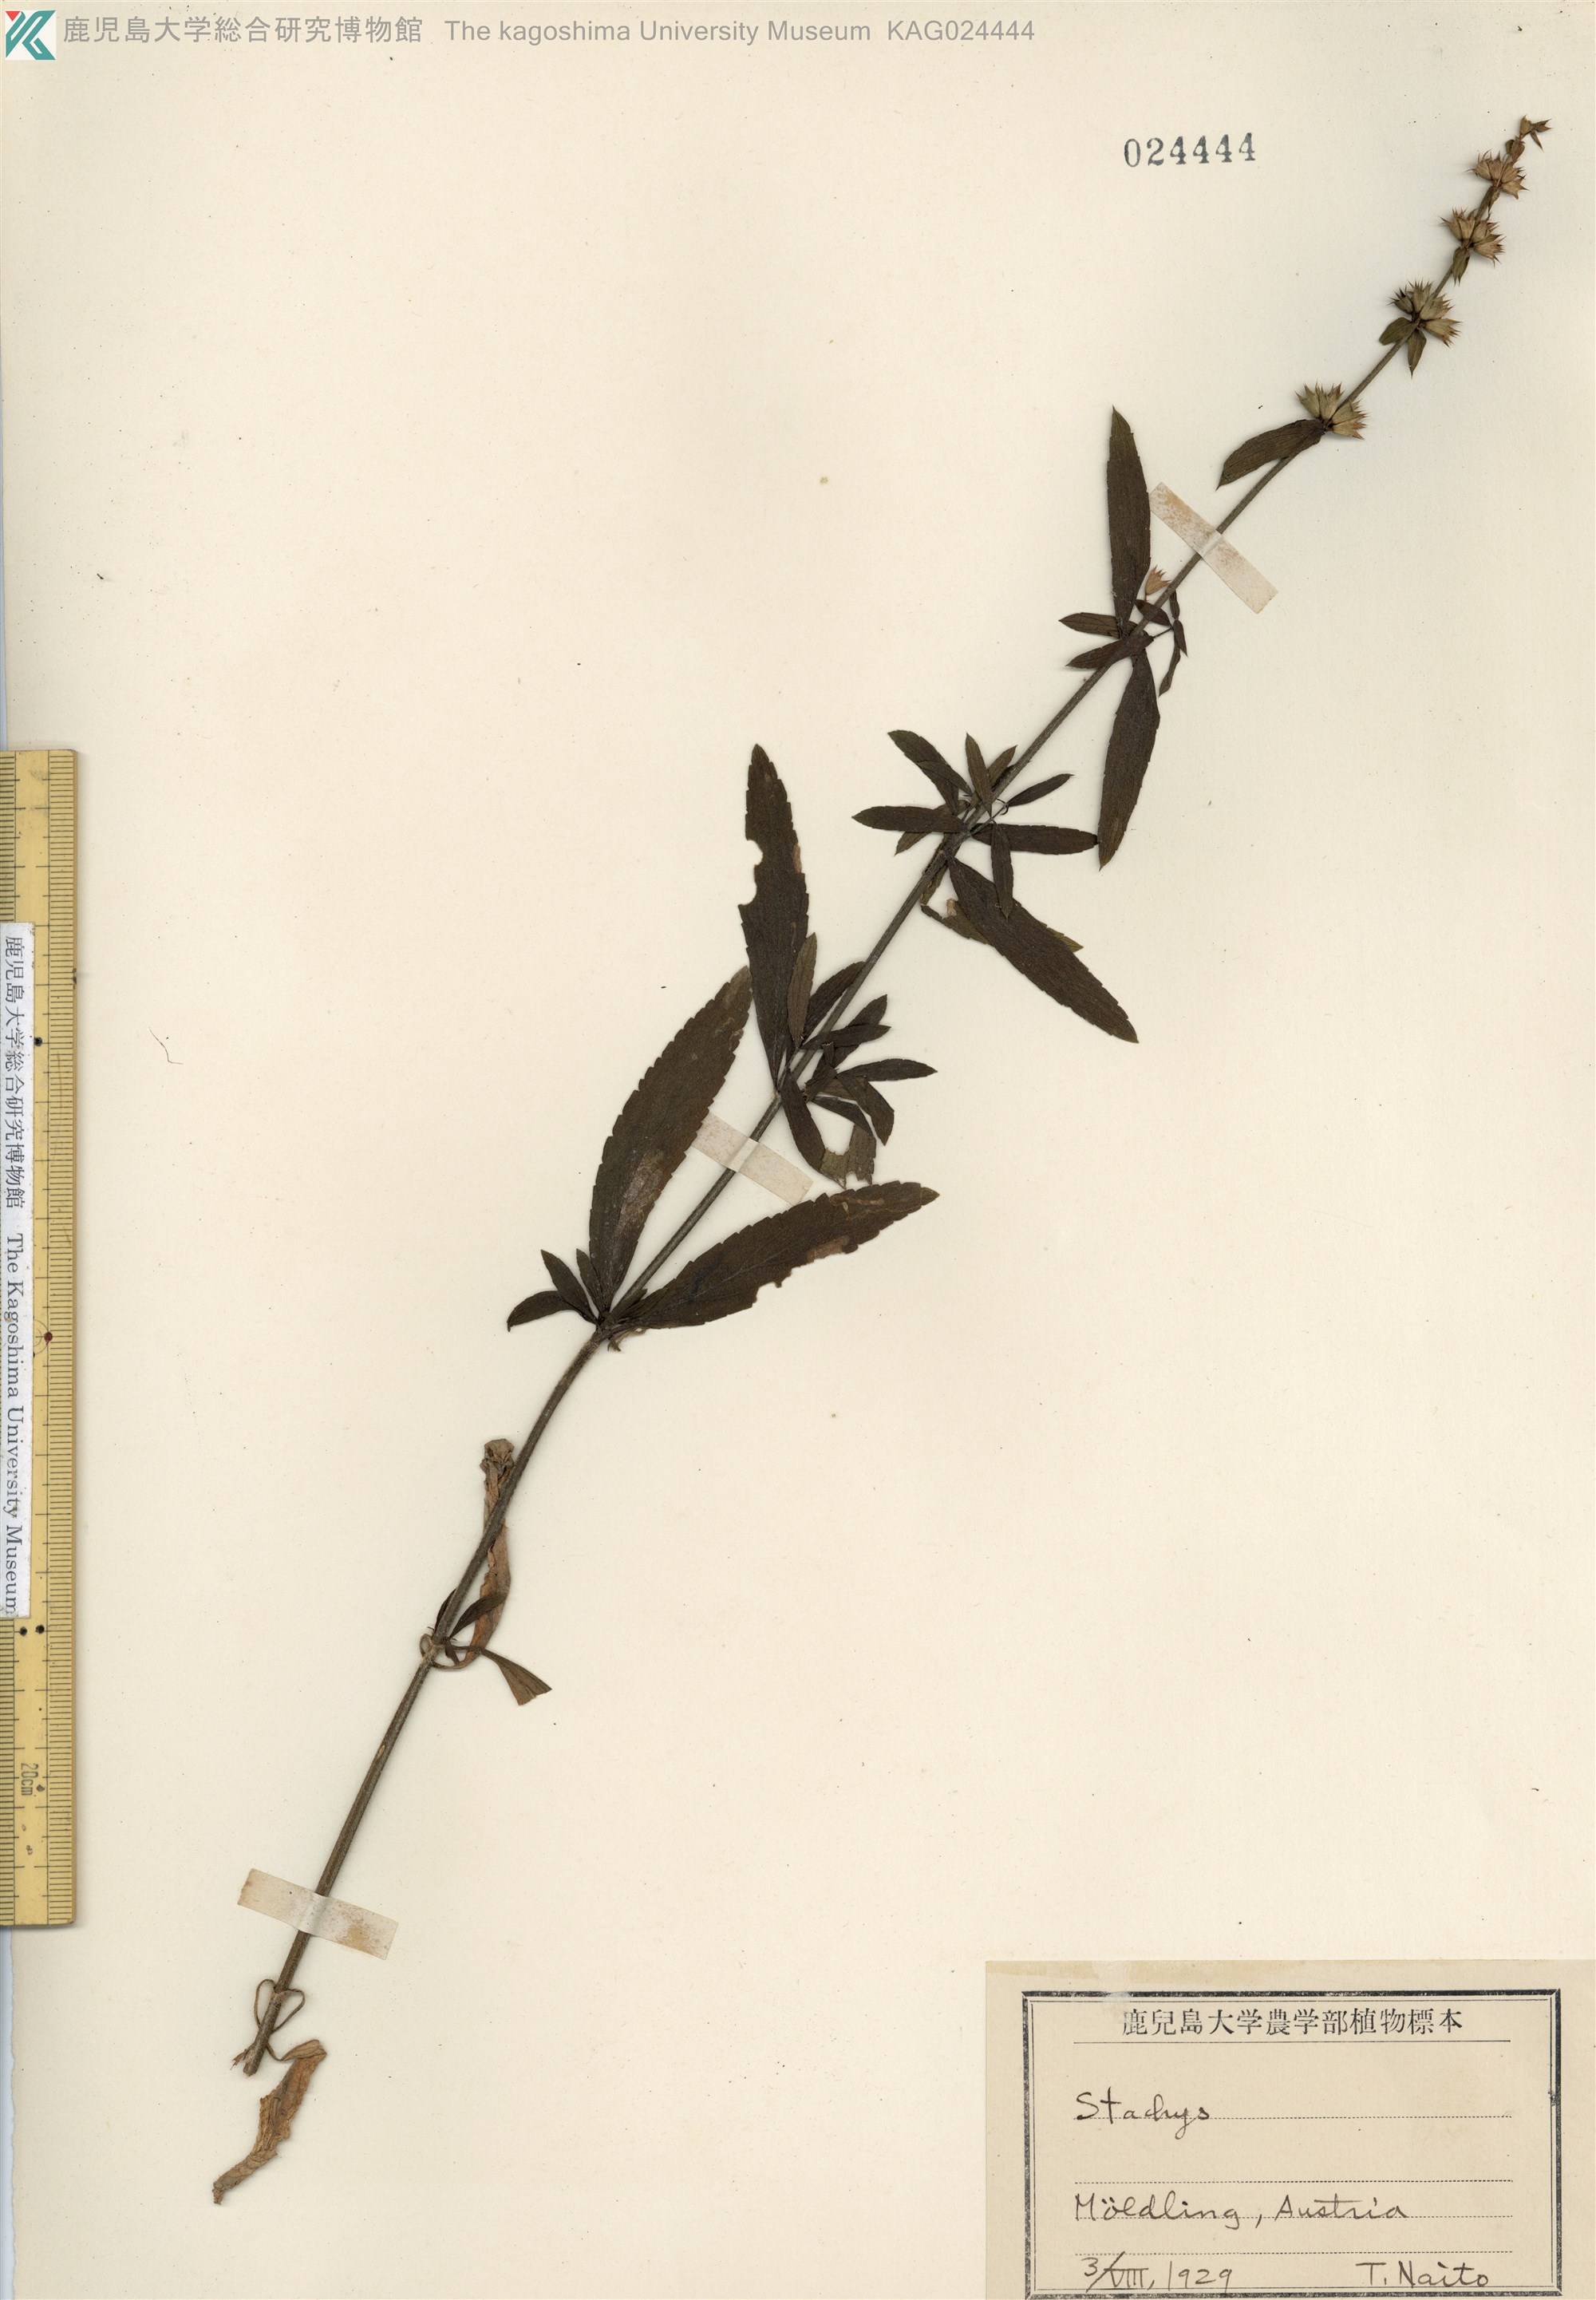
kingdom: Plantae
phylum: Tracheophyta
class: Magnoliopsida
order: Lamiales
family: Lamiaceae
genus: Stachys
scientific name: Stachys
